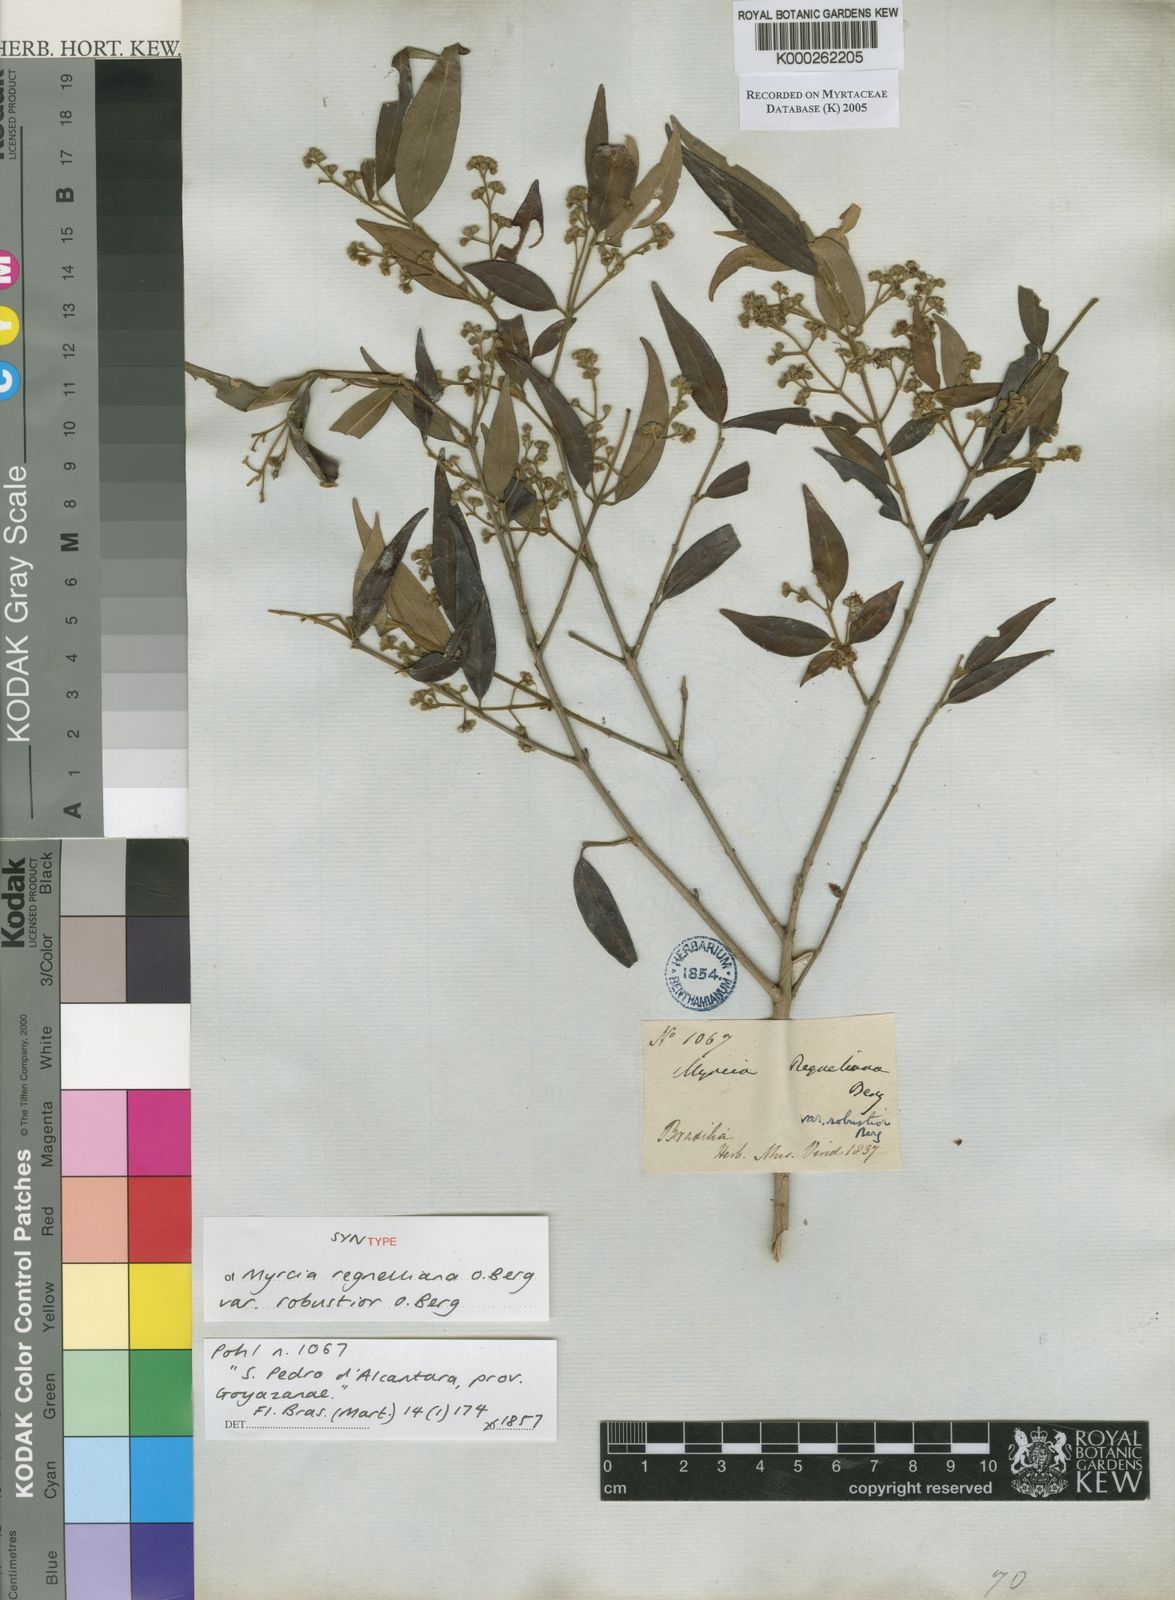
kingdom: Plantae
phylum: Tracheophyta
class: Magnoliopsida
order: Myrtales
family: Myrtaceae
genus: Myrcia
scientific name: Myrcia regnelliana
